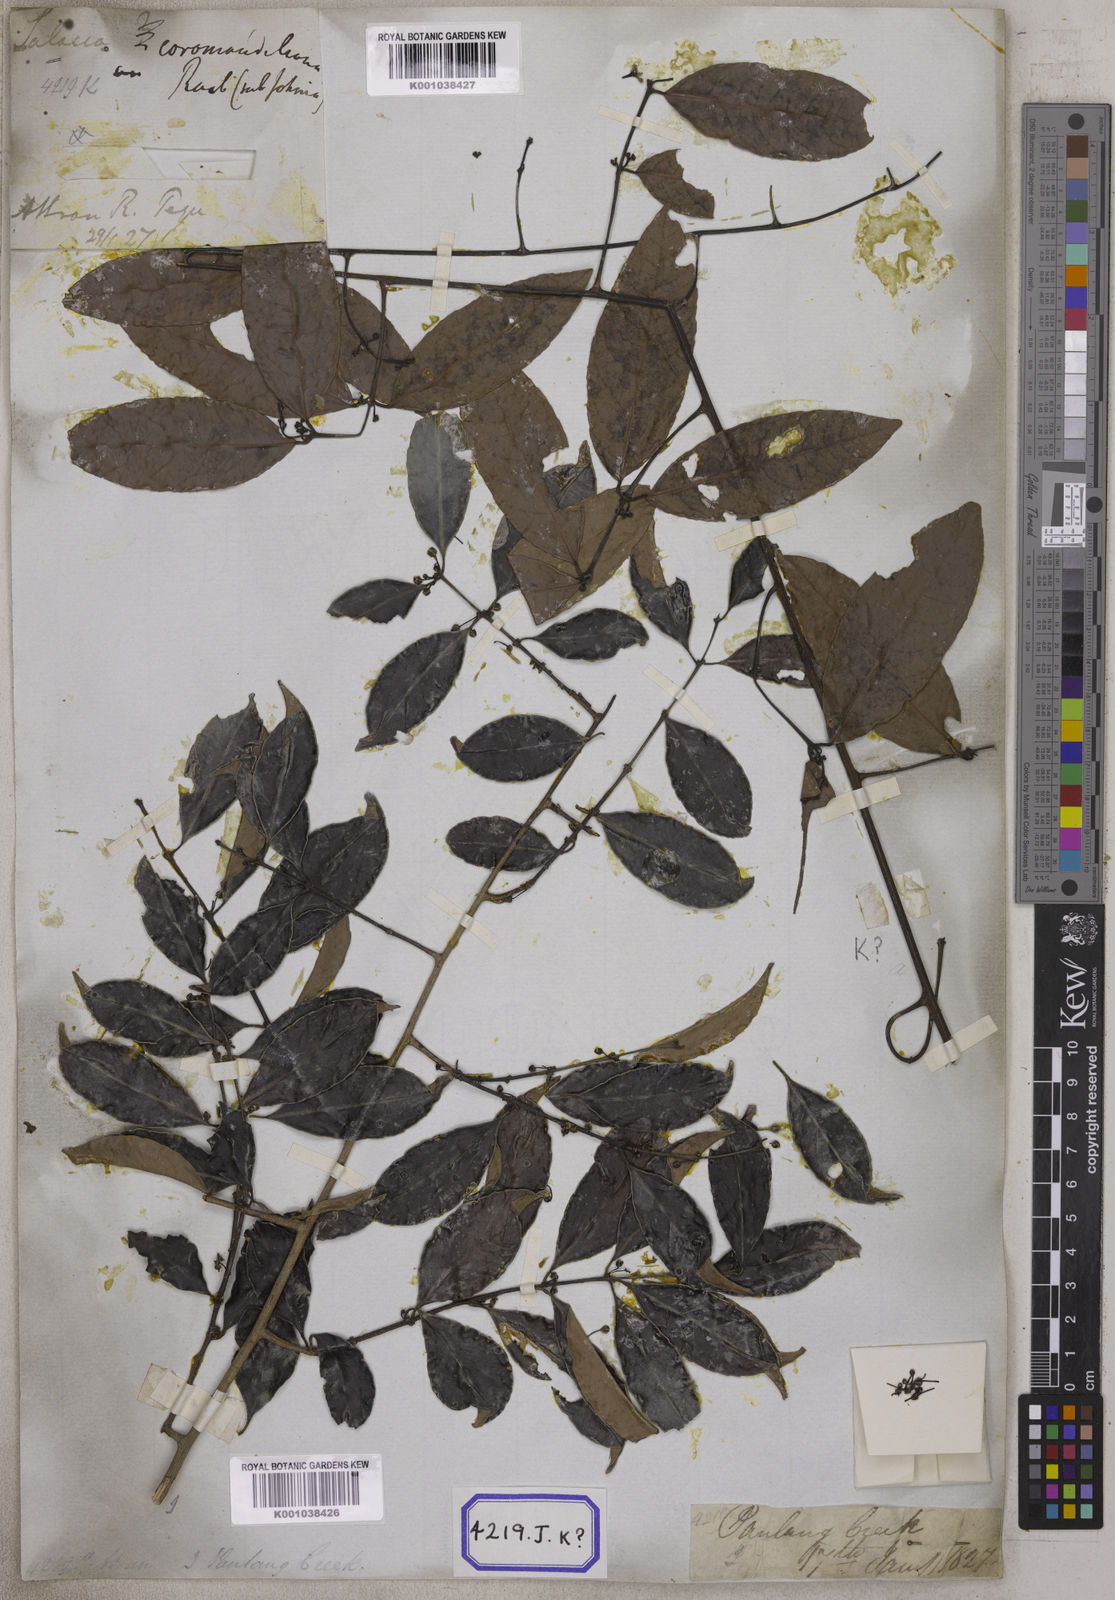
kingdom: Plantae
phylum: Tracheophyta
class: Magnoliopsida
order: Celastrales
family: Celastraceae
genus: Salacia
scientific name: Salacia chinensis
